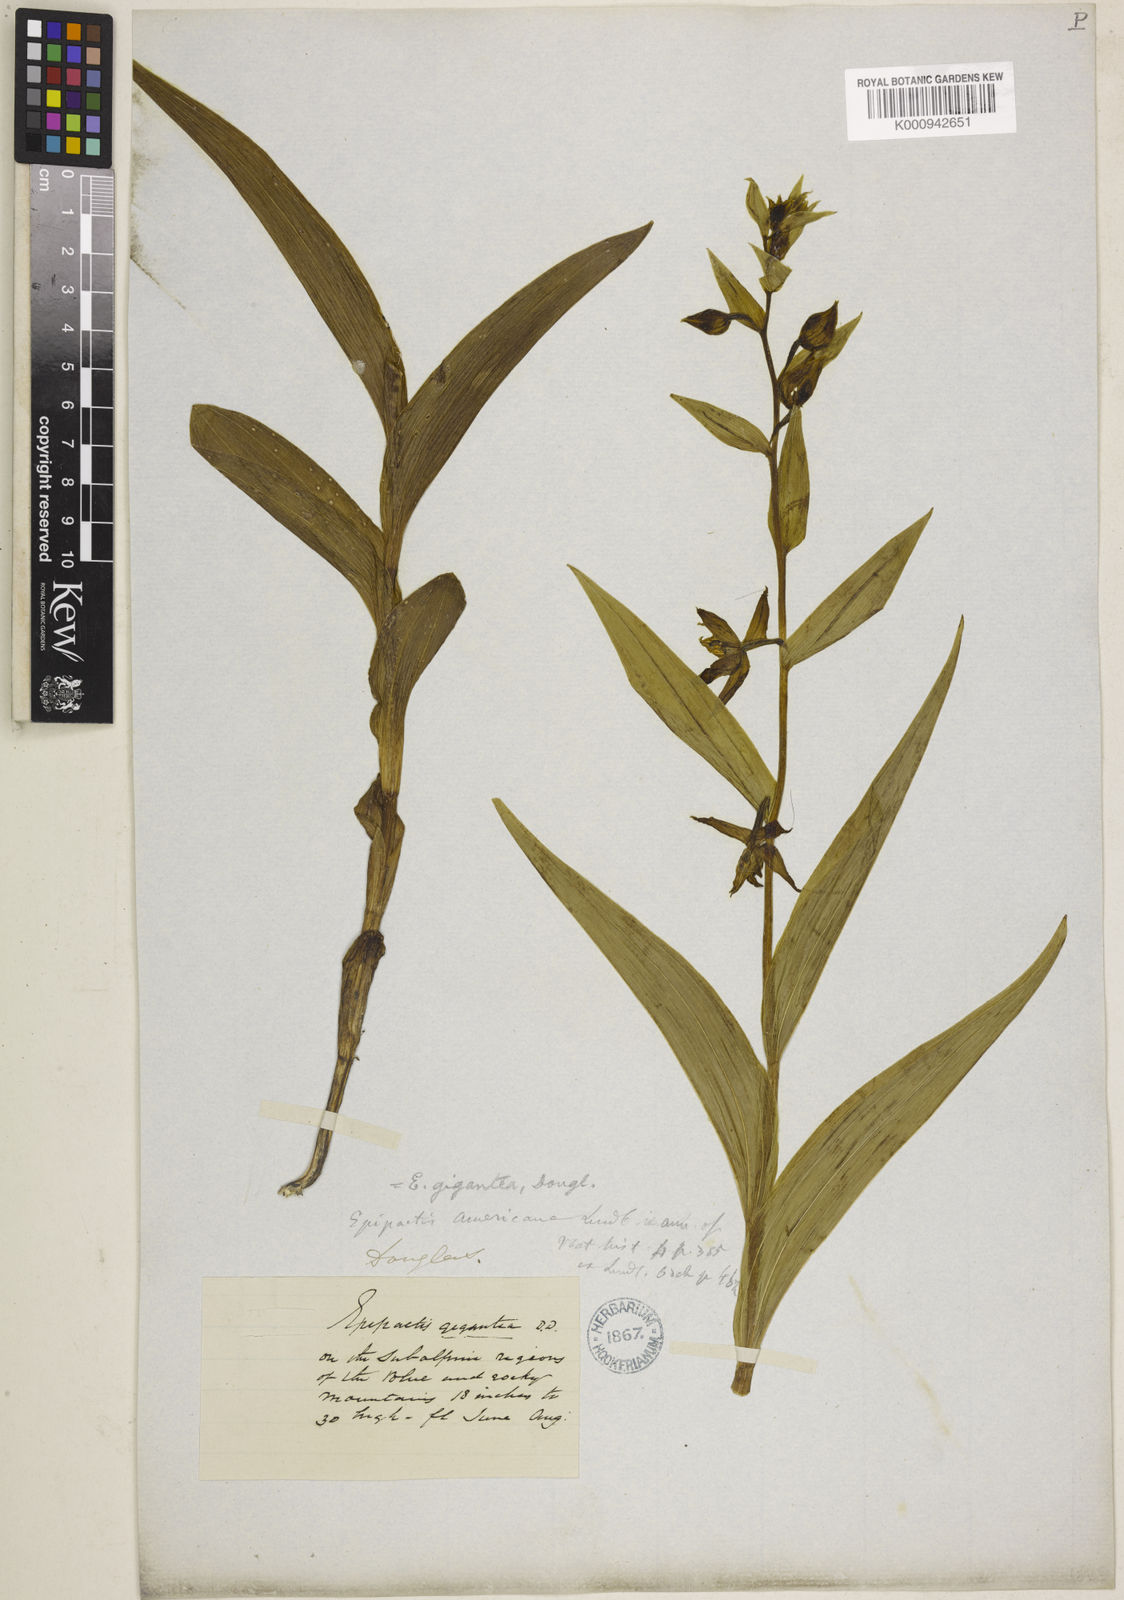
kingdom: Plantae
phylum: Tracheophyta
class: Liliopsida
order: Asparagales
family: Orchidaceae
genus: Epipactis
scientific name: Epipactis gigantea
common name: Chatterbox
